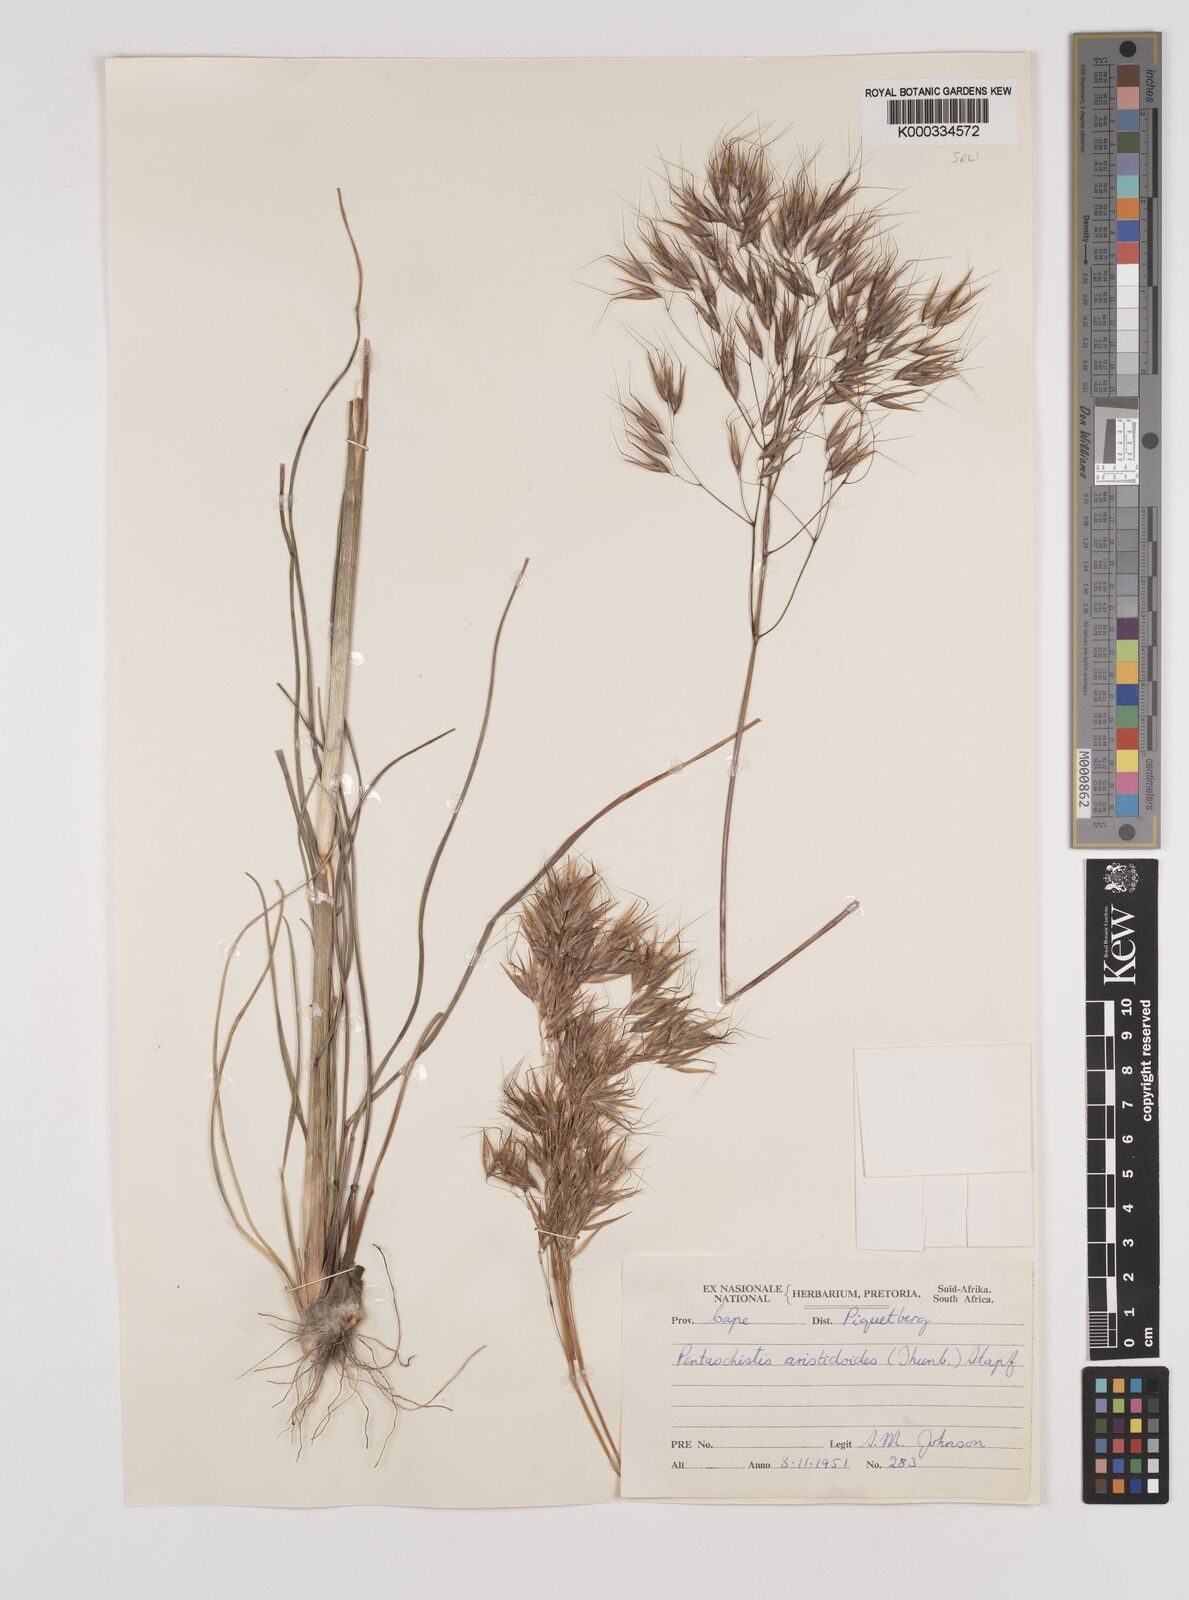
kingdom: Plantae
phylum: Tracheophyta
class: Liliopsida
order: Poales
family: Poaceae
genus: Pentameris
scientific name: Pentameris aristidoides
